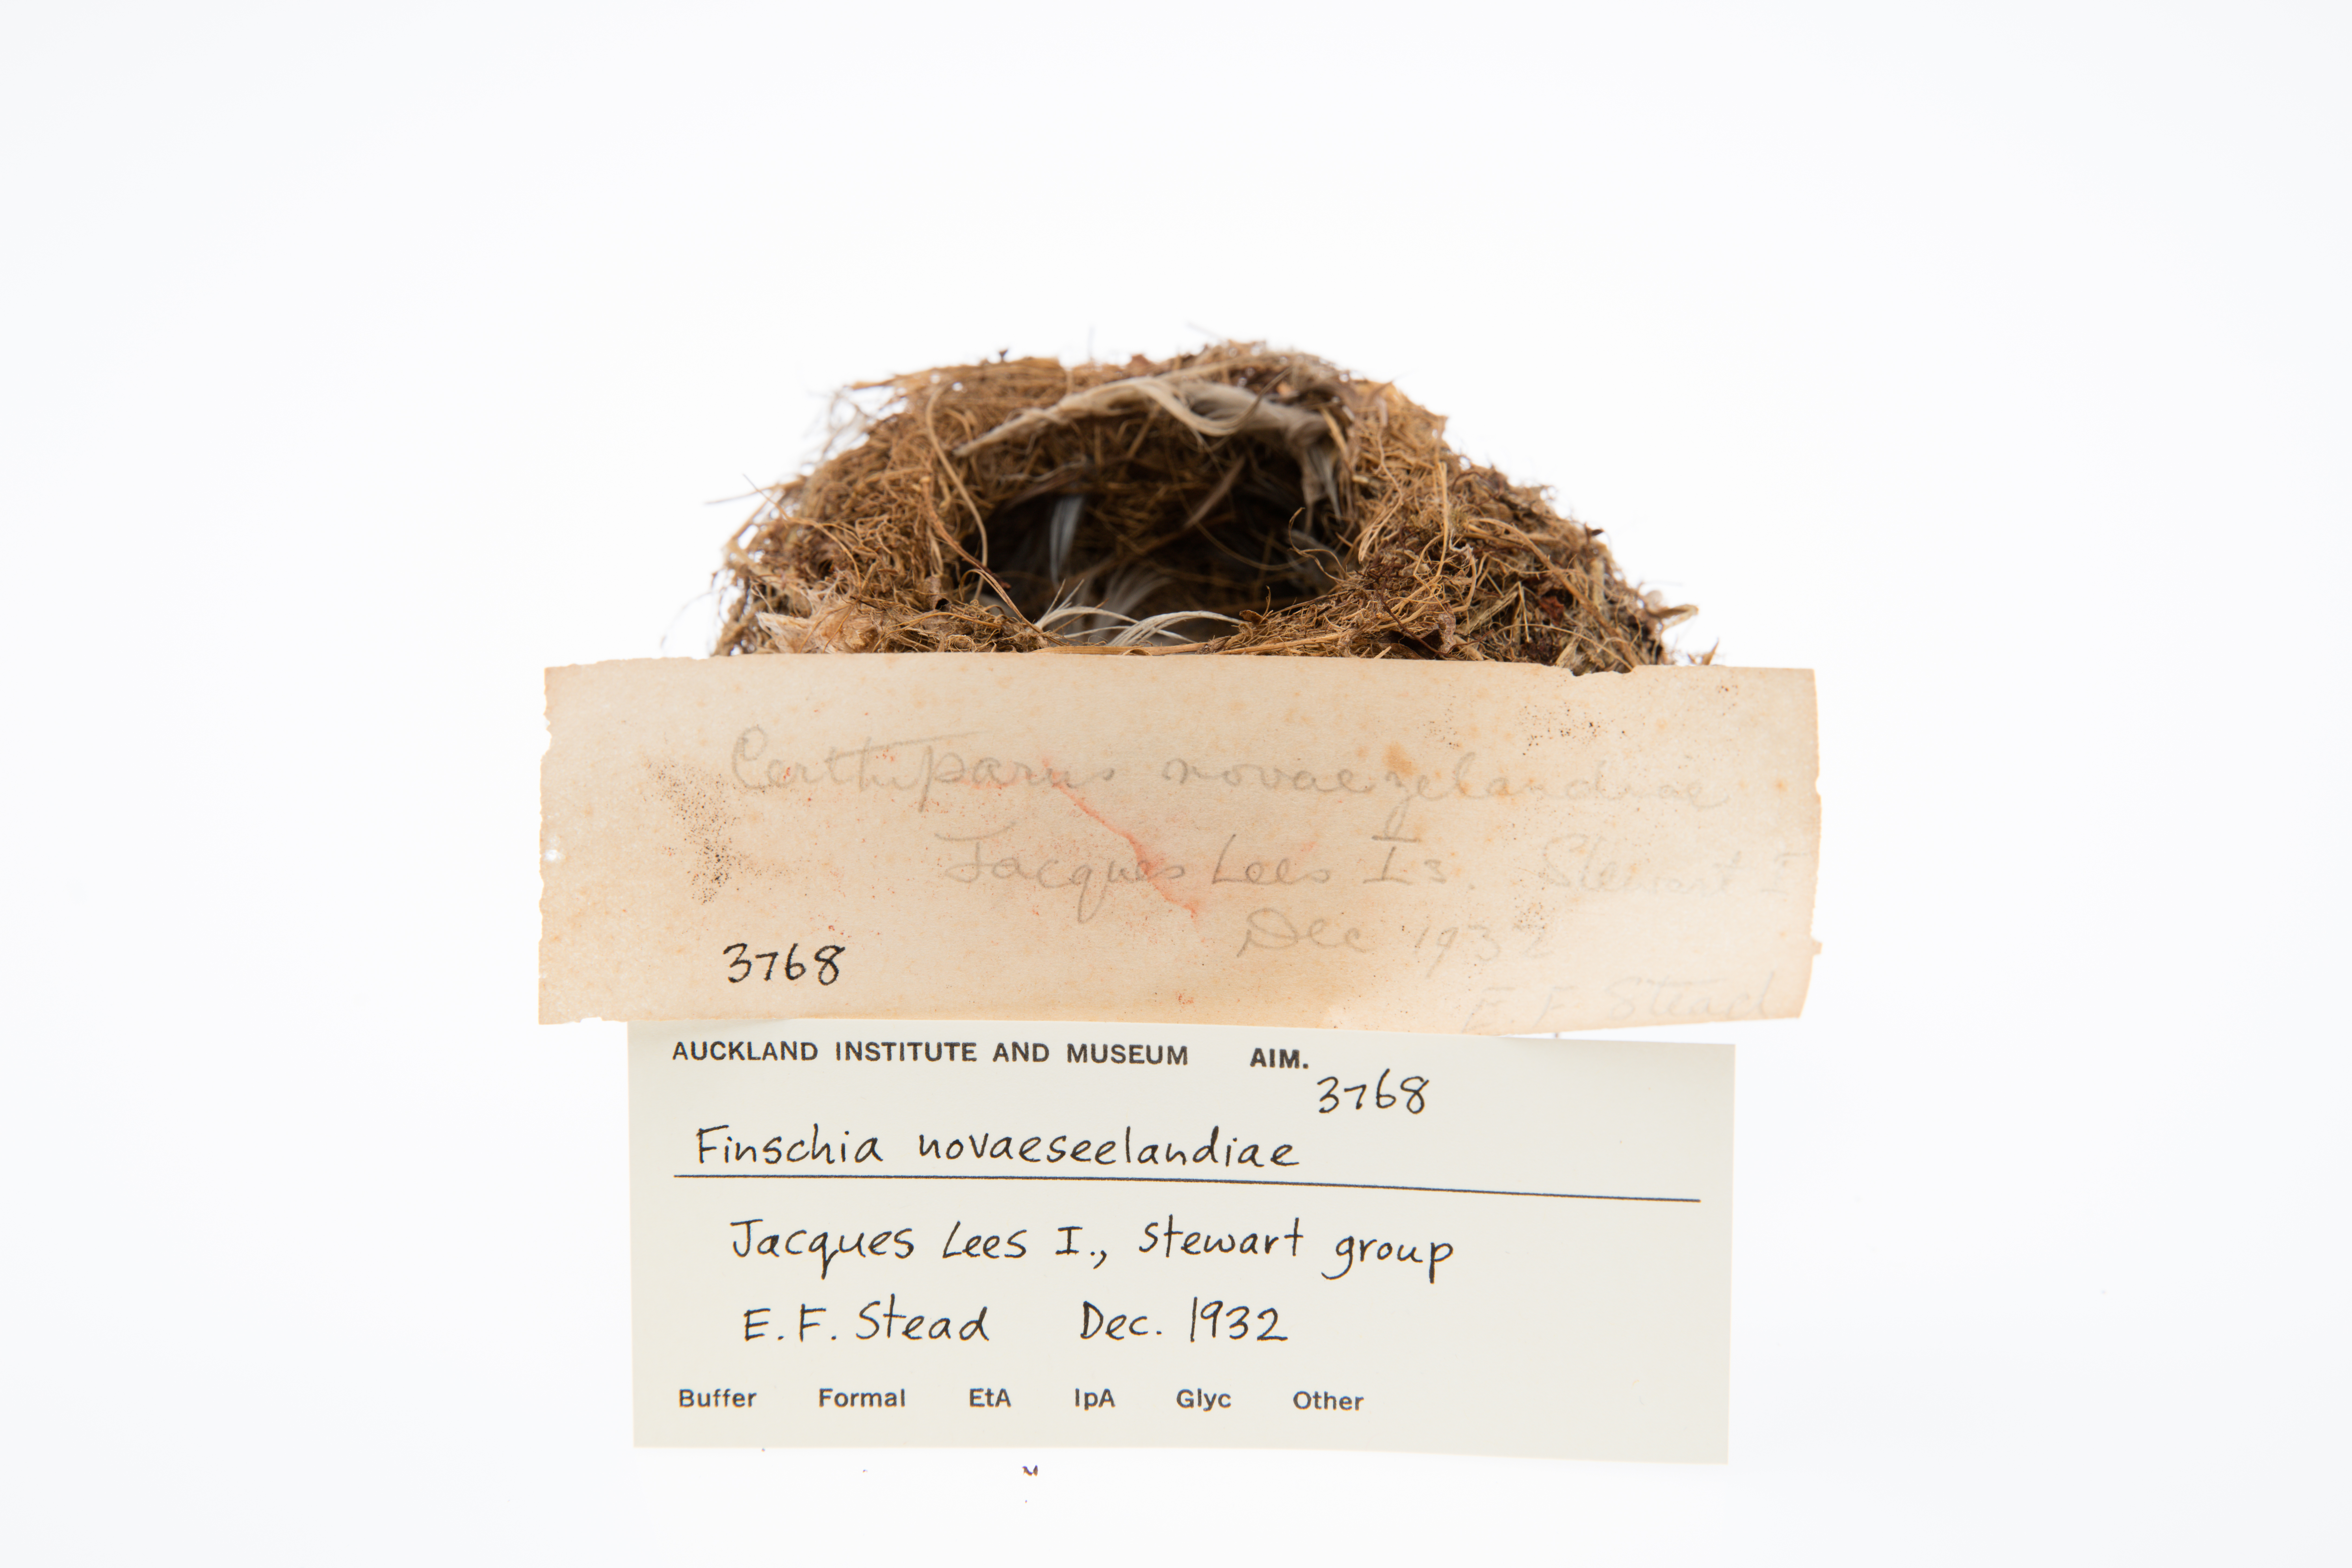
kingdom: Animalia
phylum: Chordata
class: Aves
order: Passeriformes
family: Acanthizidae
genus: Finschia
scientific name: Finschia novaeseelandiae
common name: Pipipi
